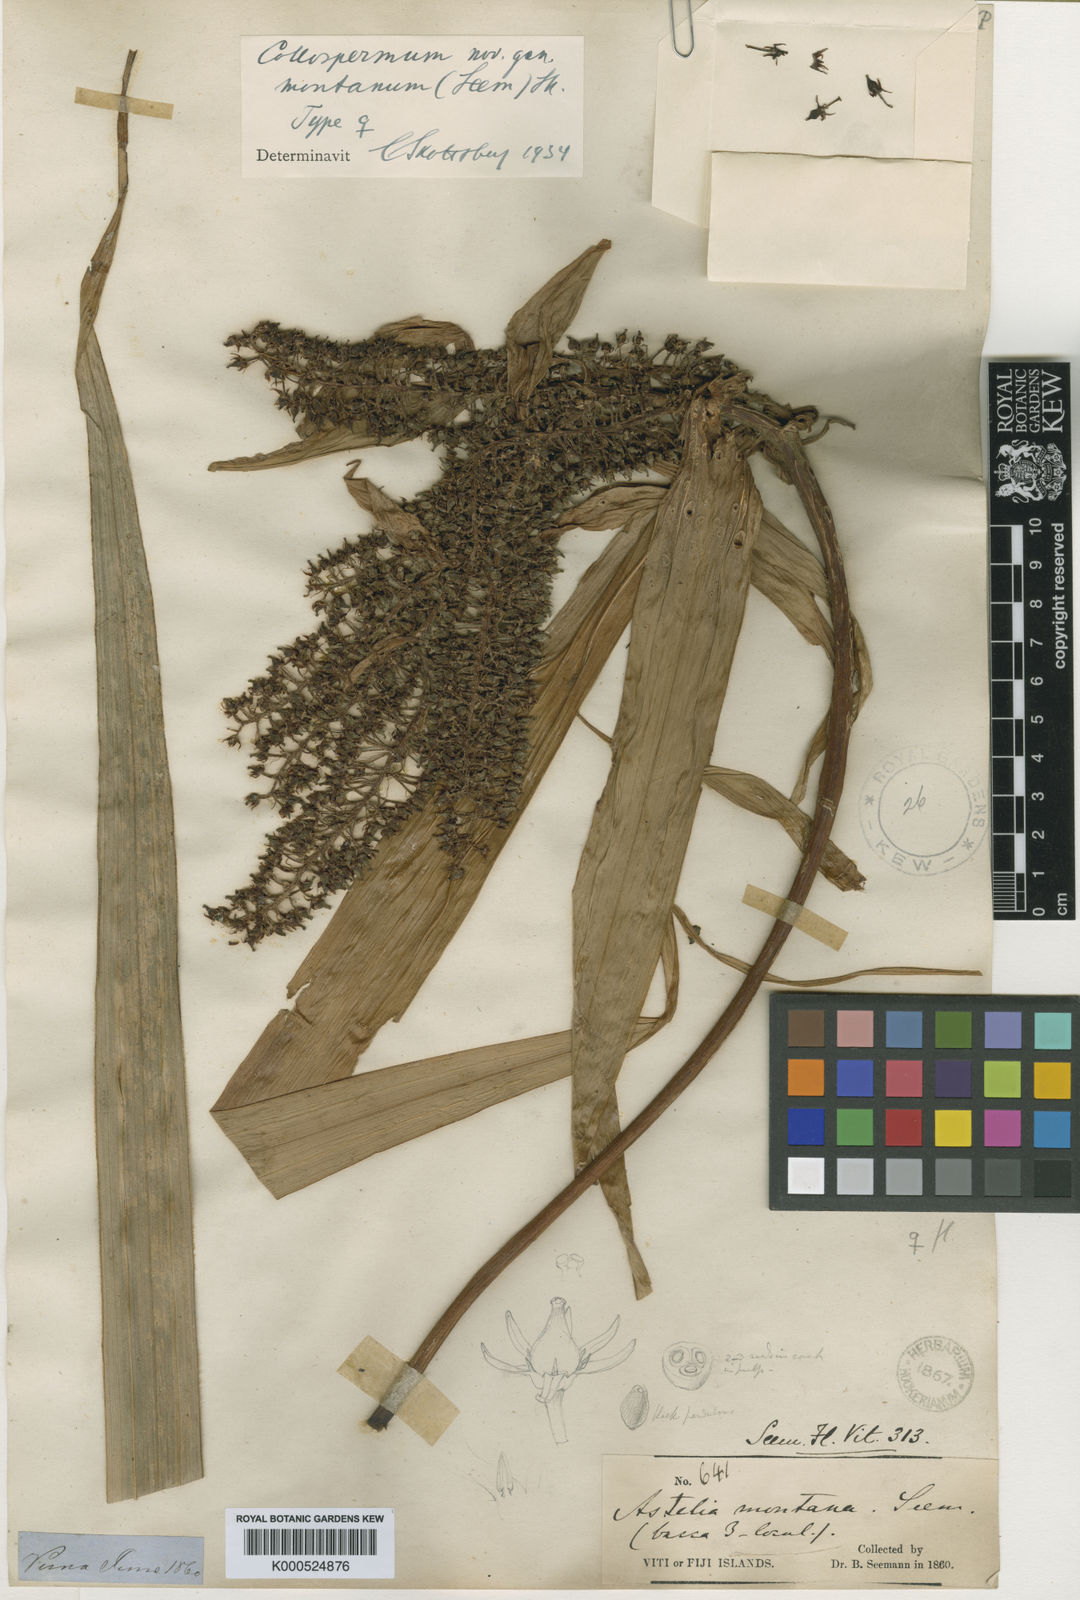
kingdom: Plantae
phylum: Tracheophyta
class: Liliopsida
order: Asparagales
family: Asteliaceae
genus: Astelia
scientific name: Astelia montana
